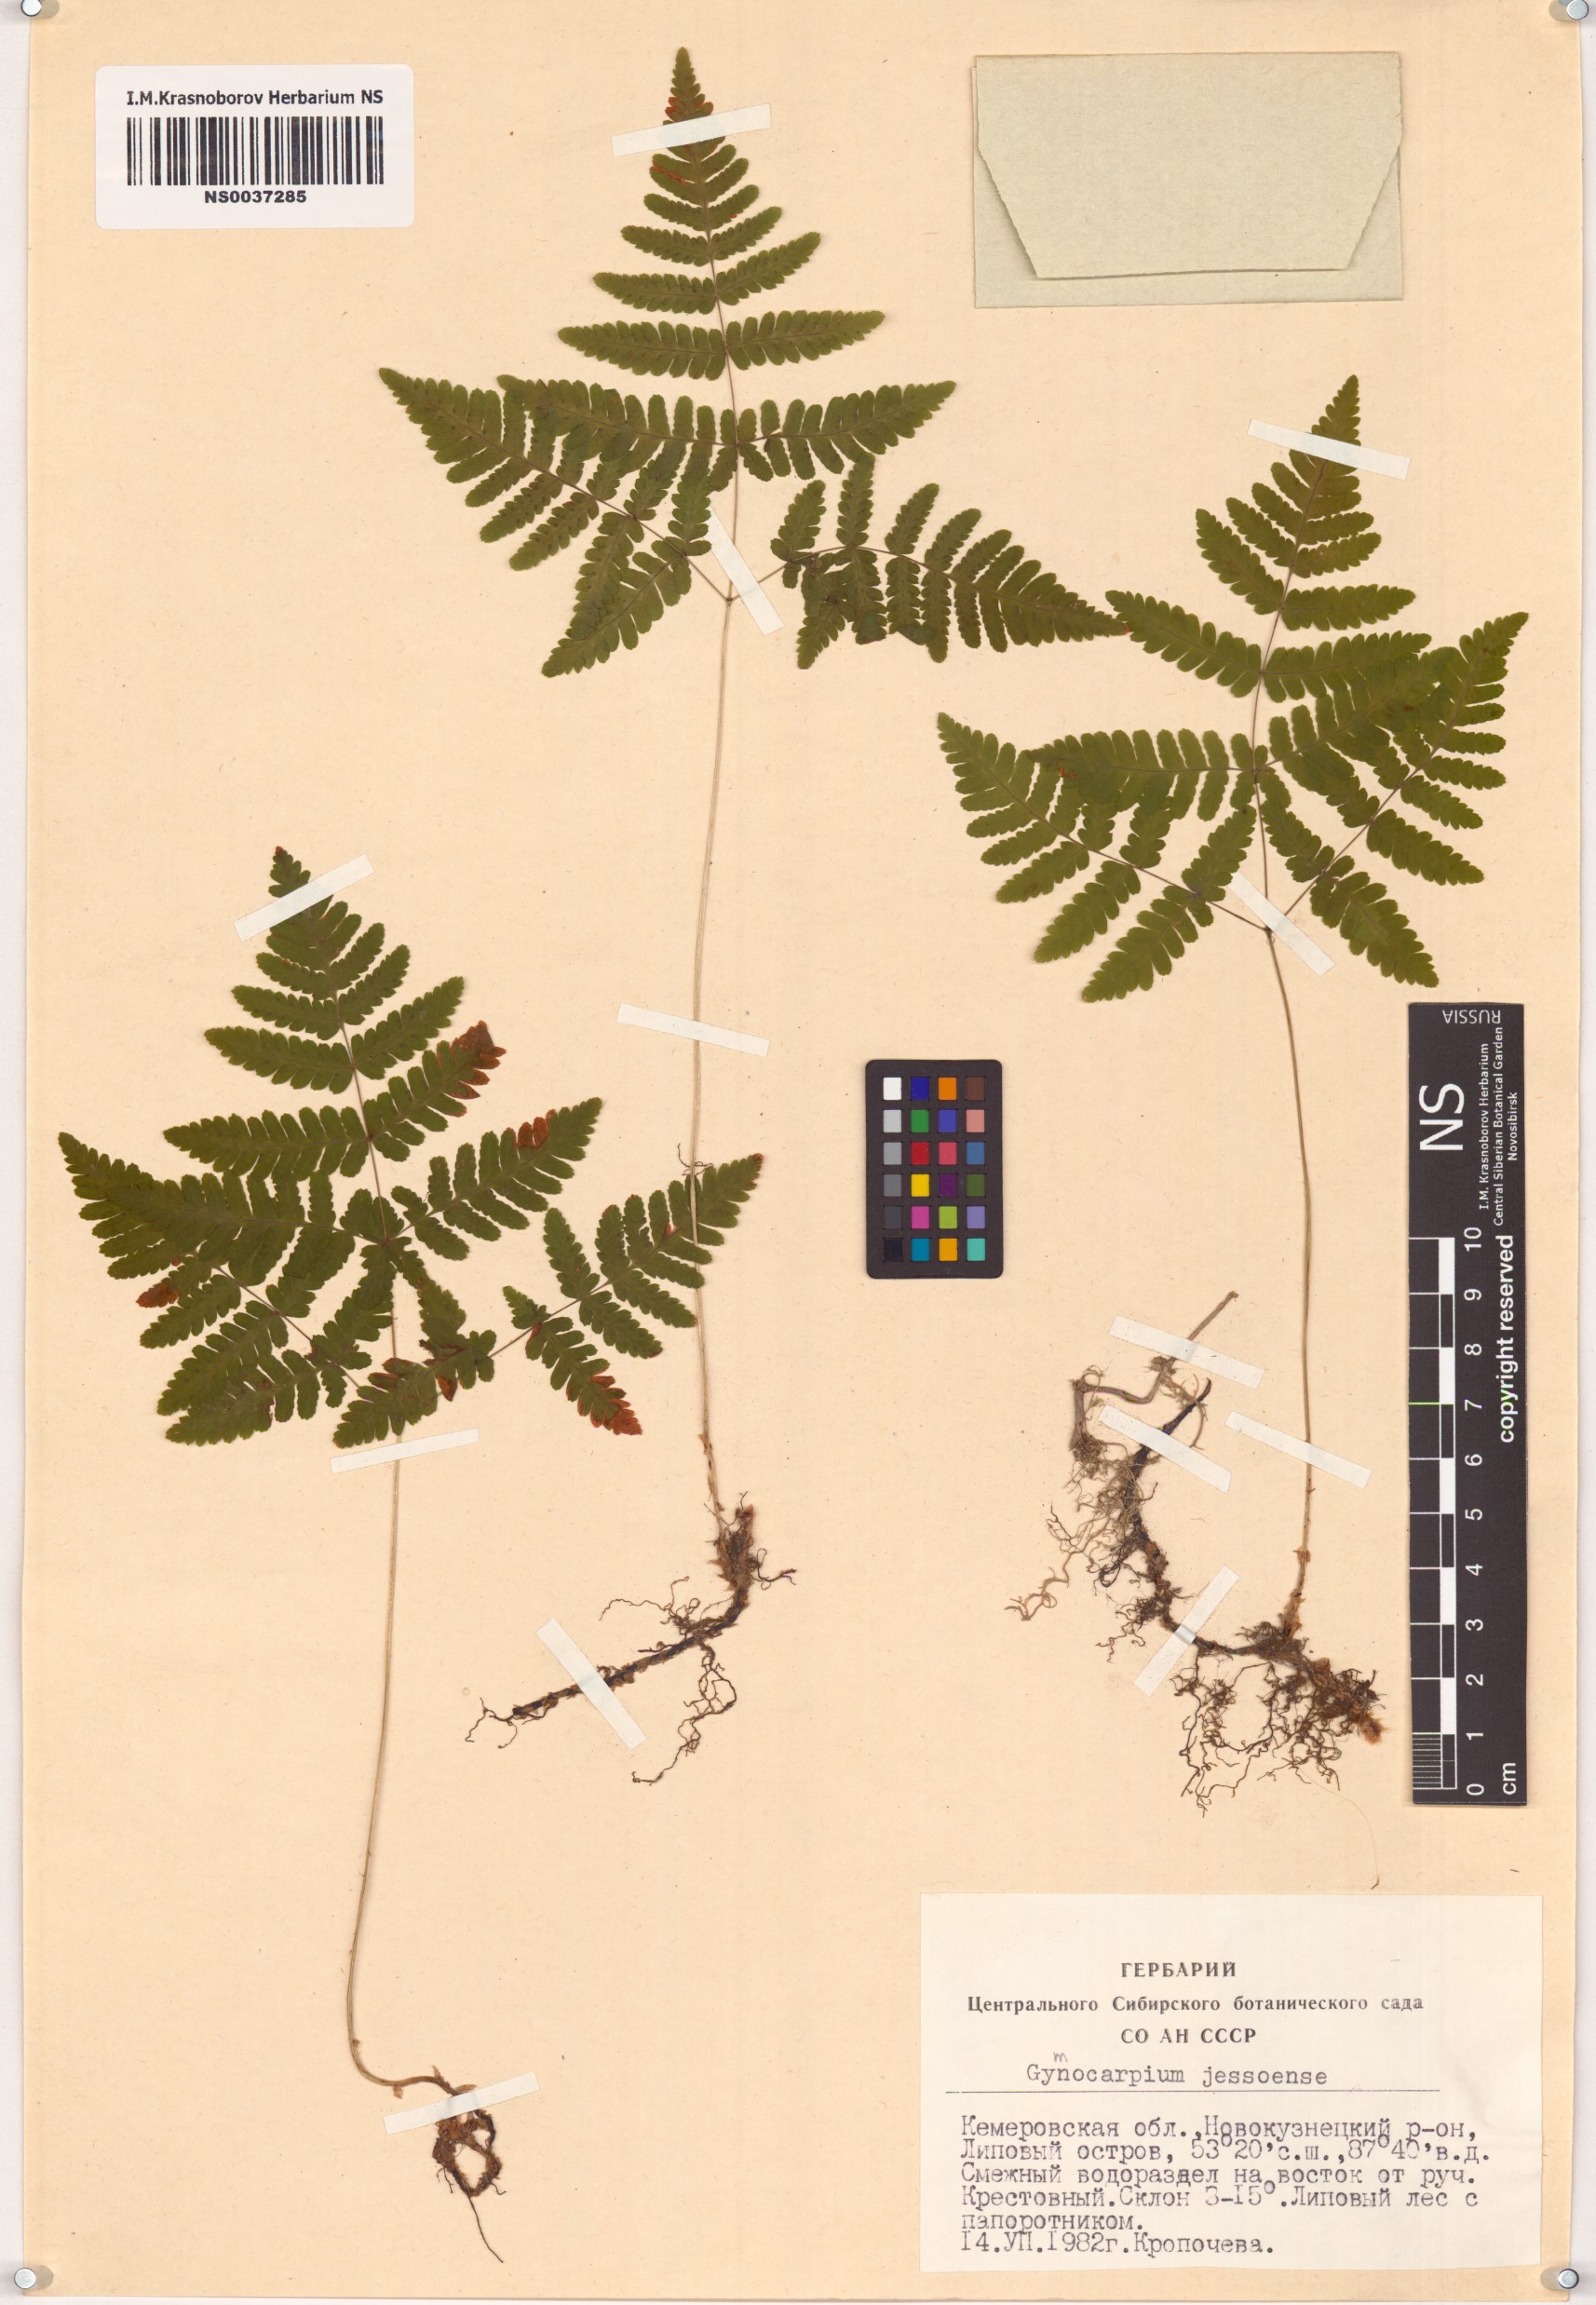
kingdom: Plantae
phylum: Tracheophyta
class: Polypodiopsida
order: Polypodiales
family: Cystopteridaceae
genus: Gymnocarpium
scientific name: Gymnocarpium jessoense
